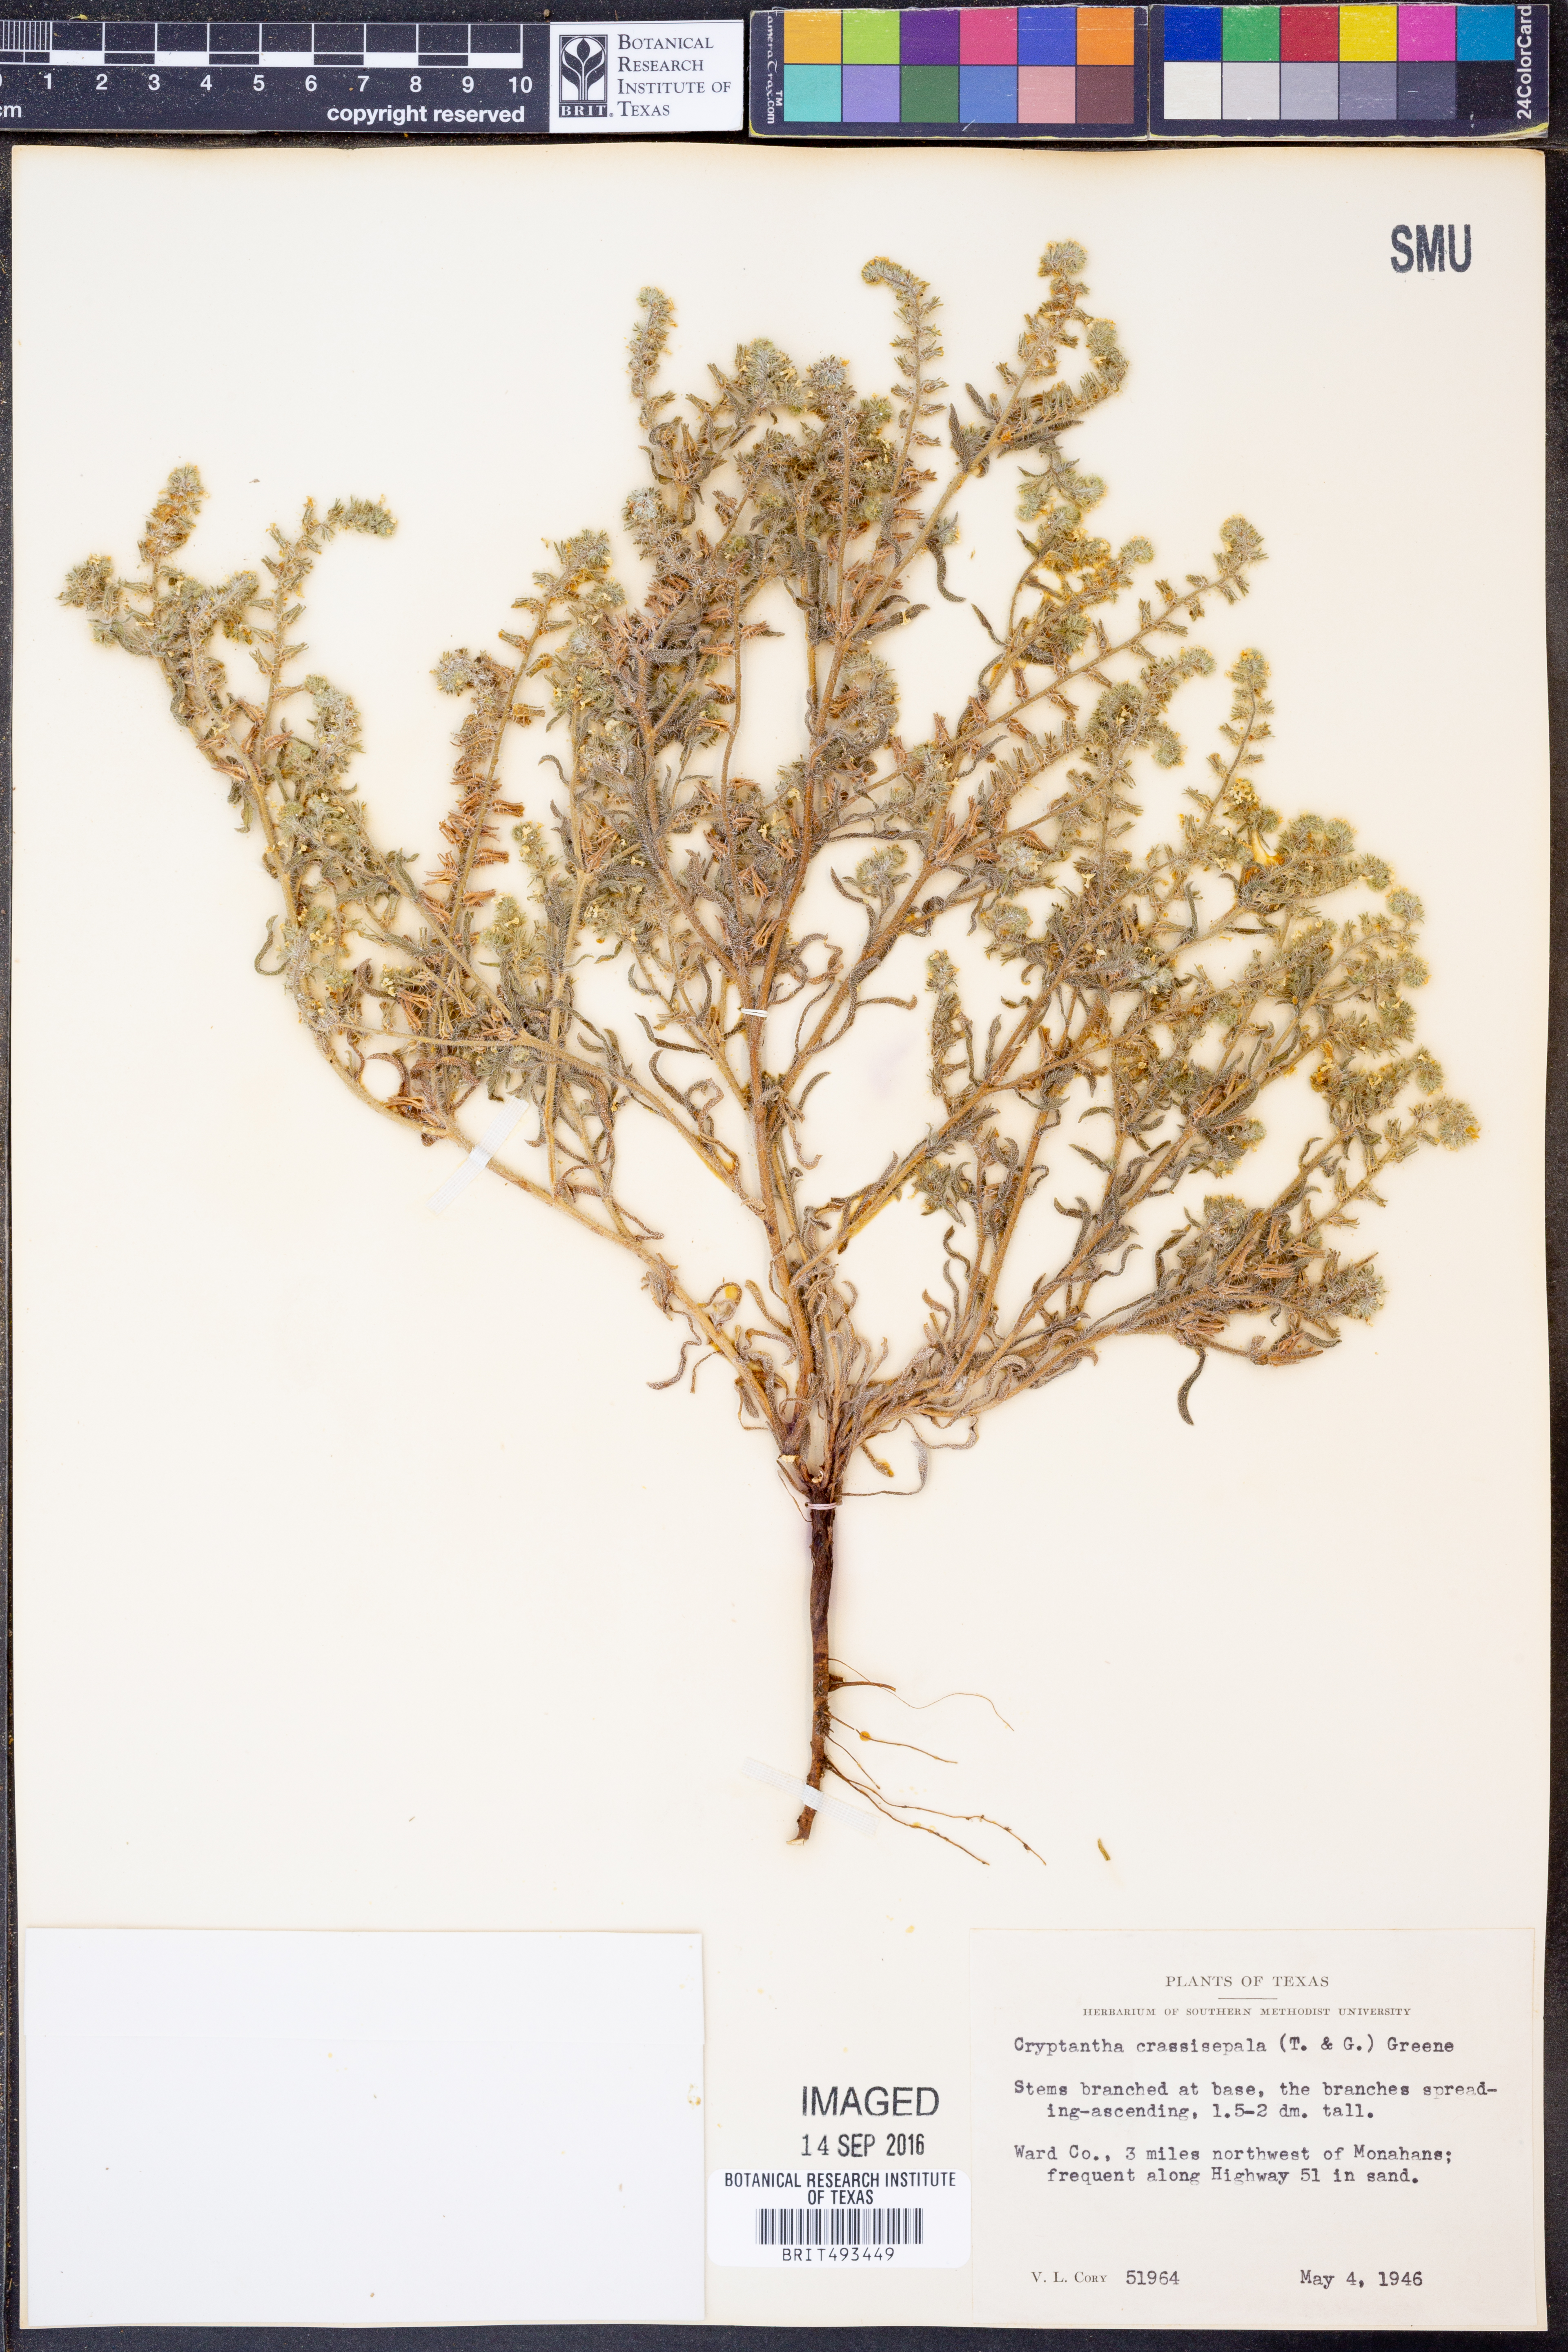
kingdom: Plantae
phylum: Tracheophyta
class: Magnoliopsida
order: Boraginales
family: Boraginaceae
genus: Cryptantha
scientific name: Cryptantha crassisepala
